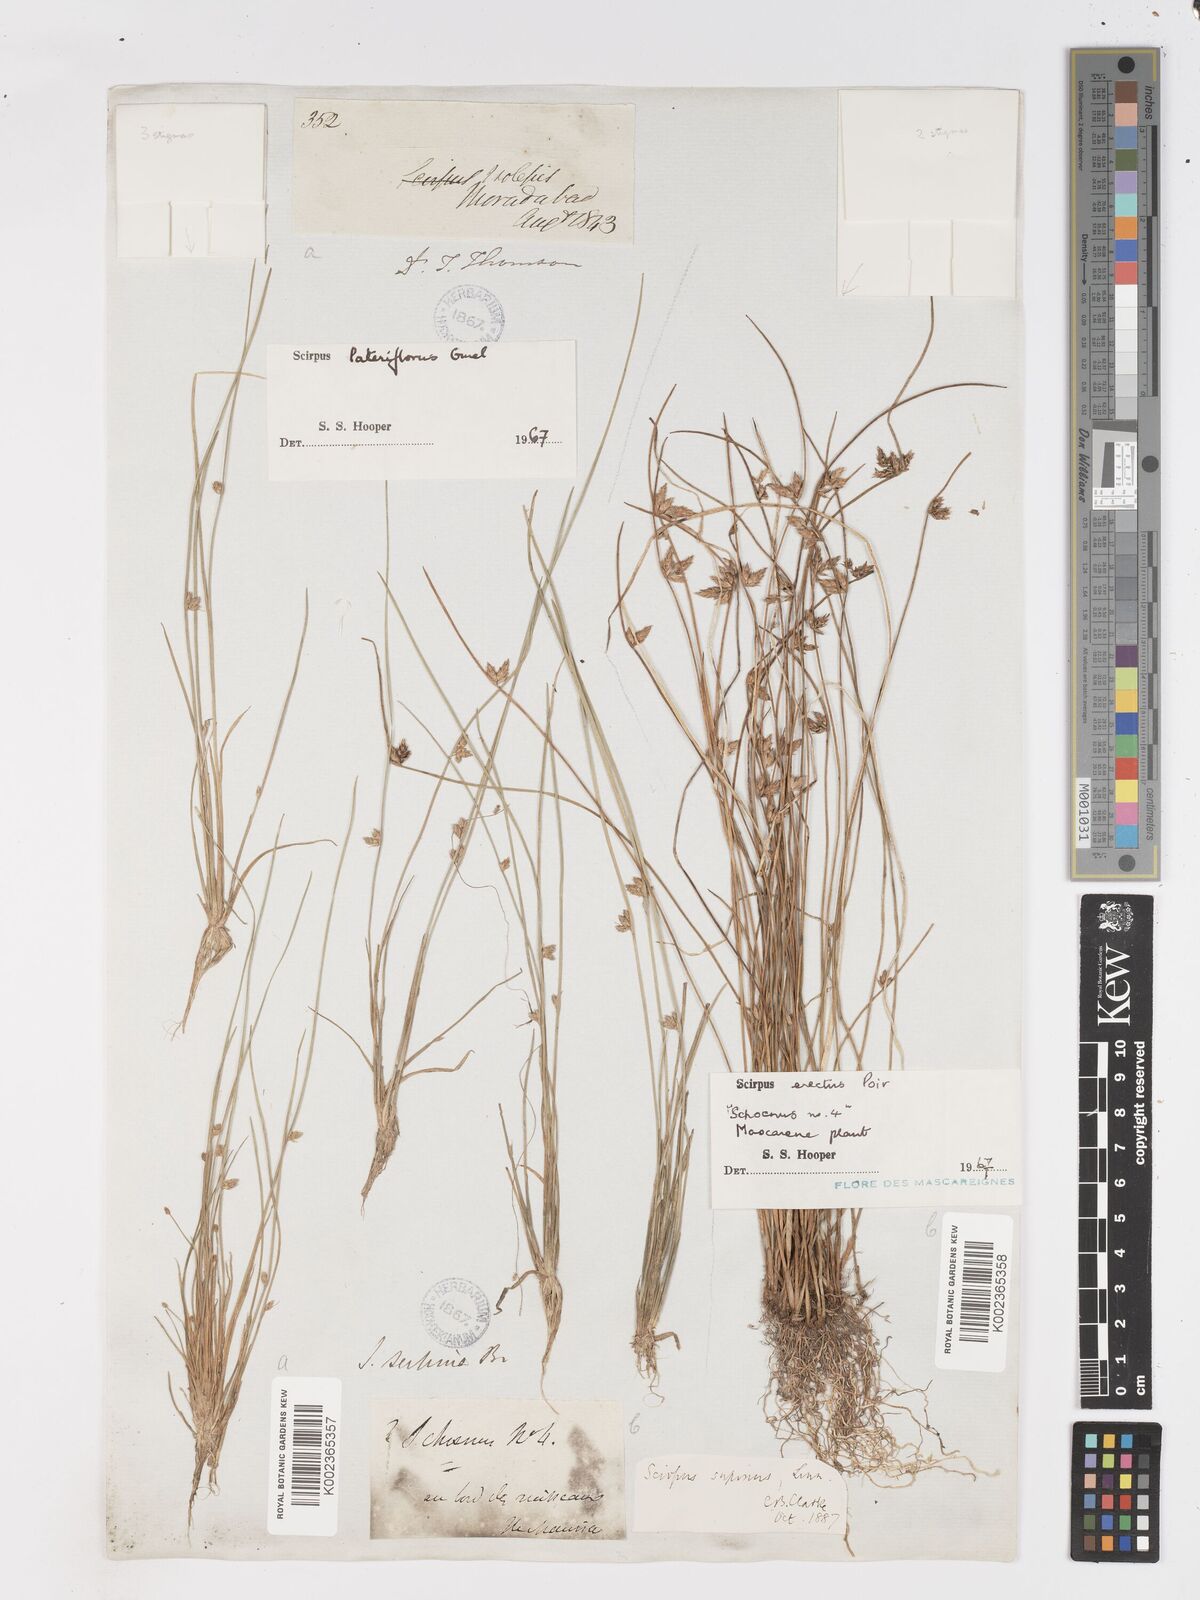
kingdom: Plantae
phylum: Tracheophyta
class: Liliopsida
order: Poales
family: Cyperaceae
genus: Schoenoplectiella
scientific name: Schoenoplectiella erecta
